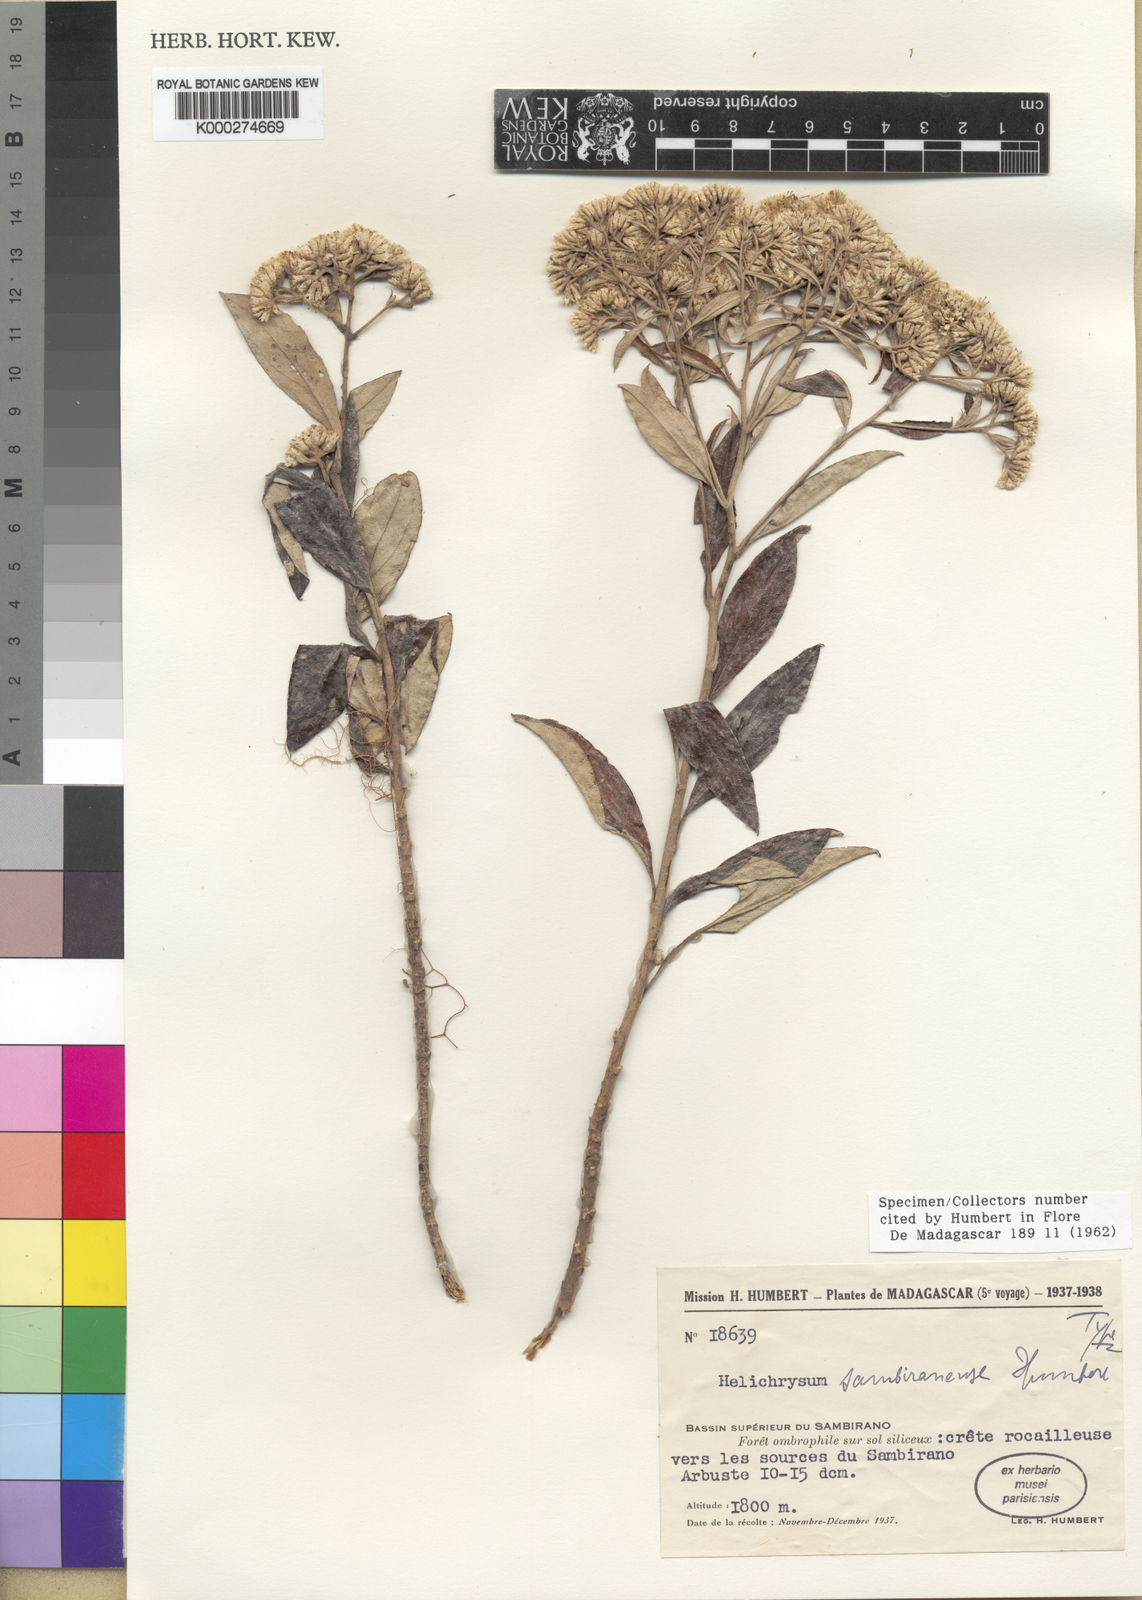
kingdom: Plantae
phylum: Tracheophyta
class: Magnoliopsida
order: Asterales
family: Asteraceae
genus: Helichrysum
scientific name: Helichrysum sambiranense
